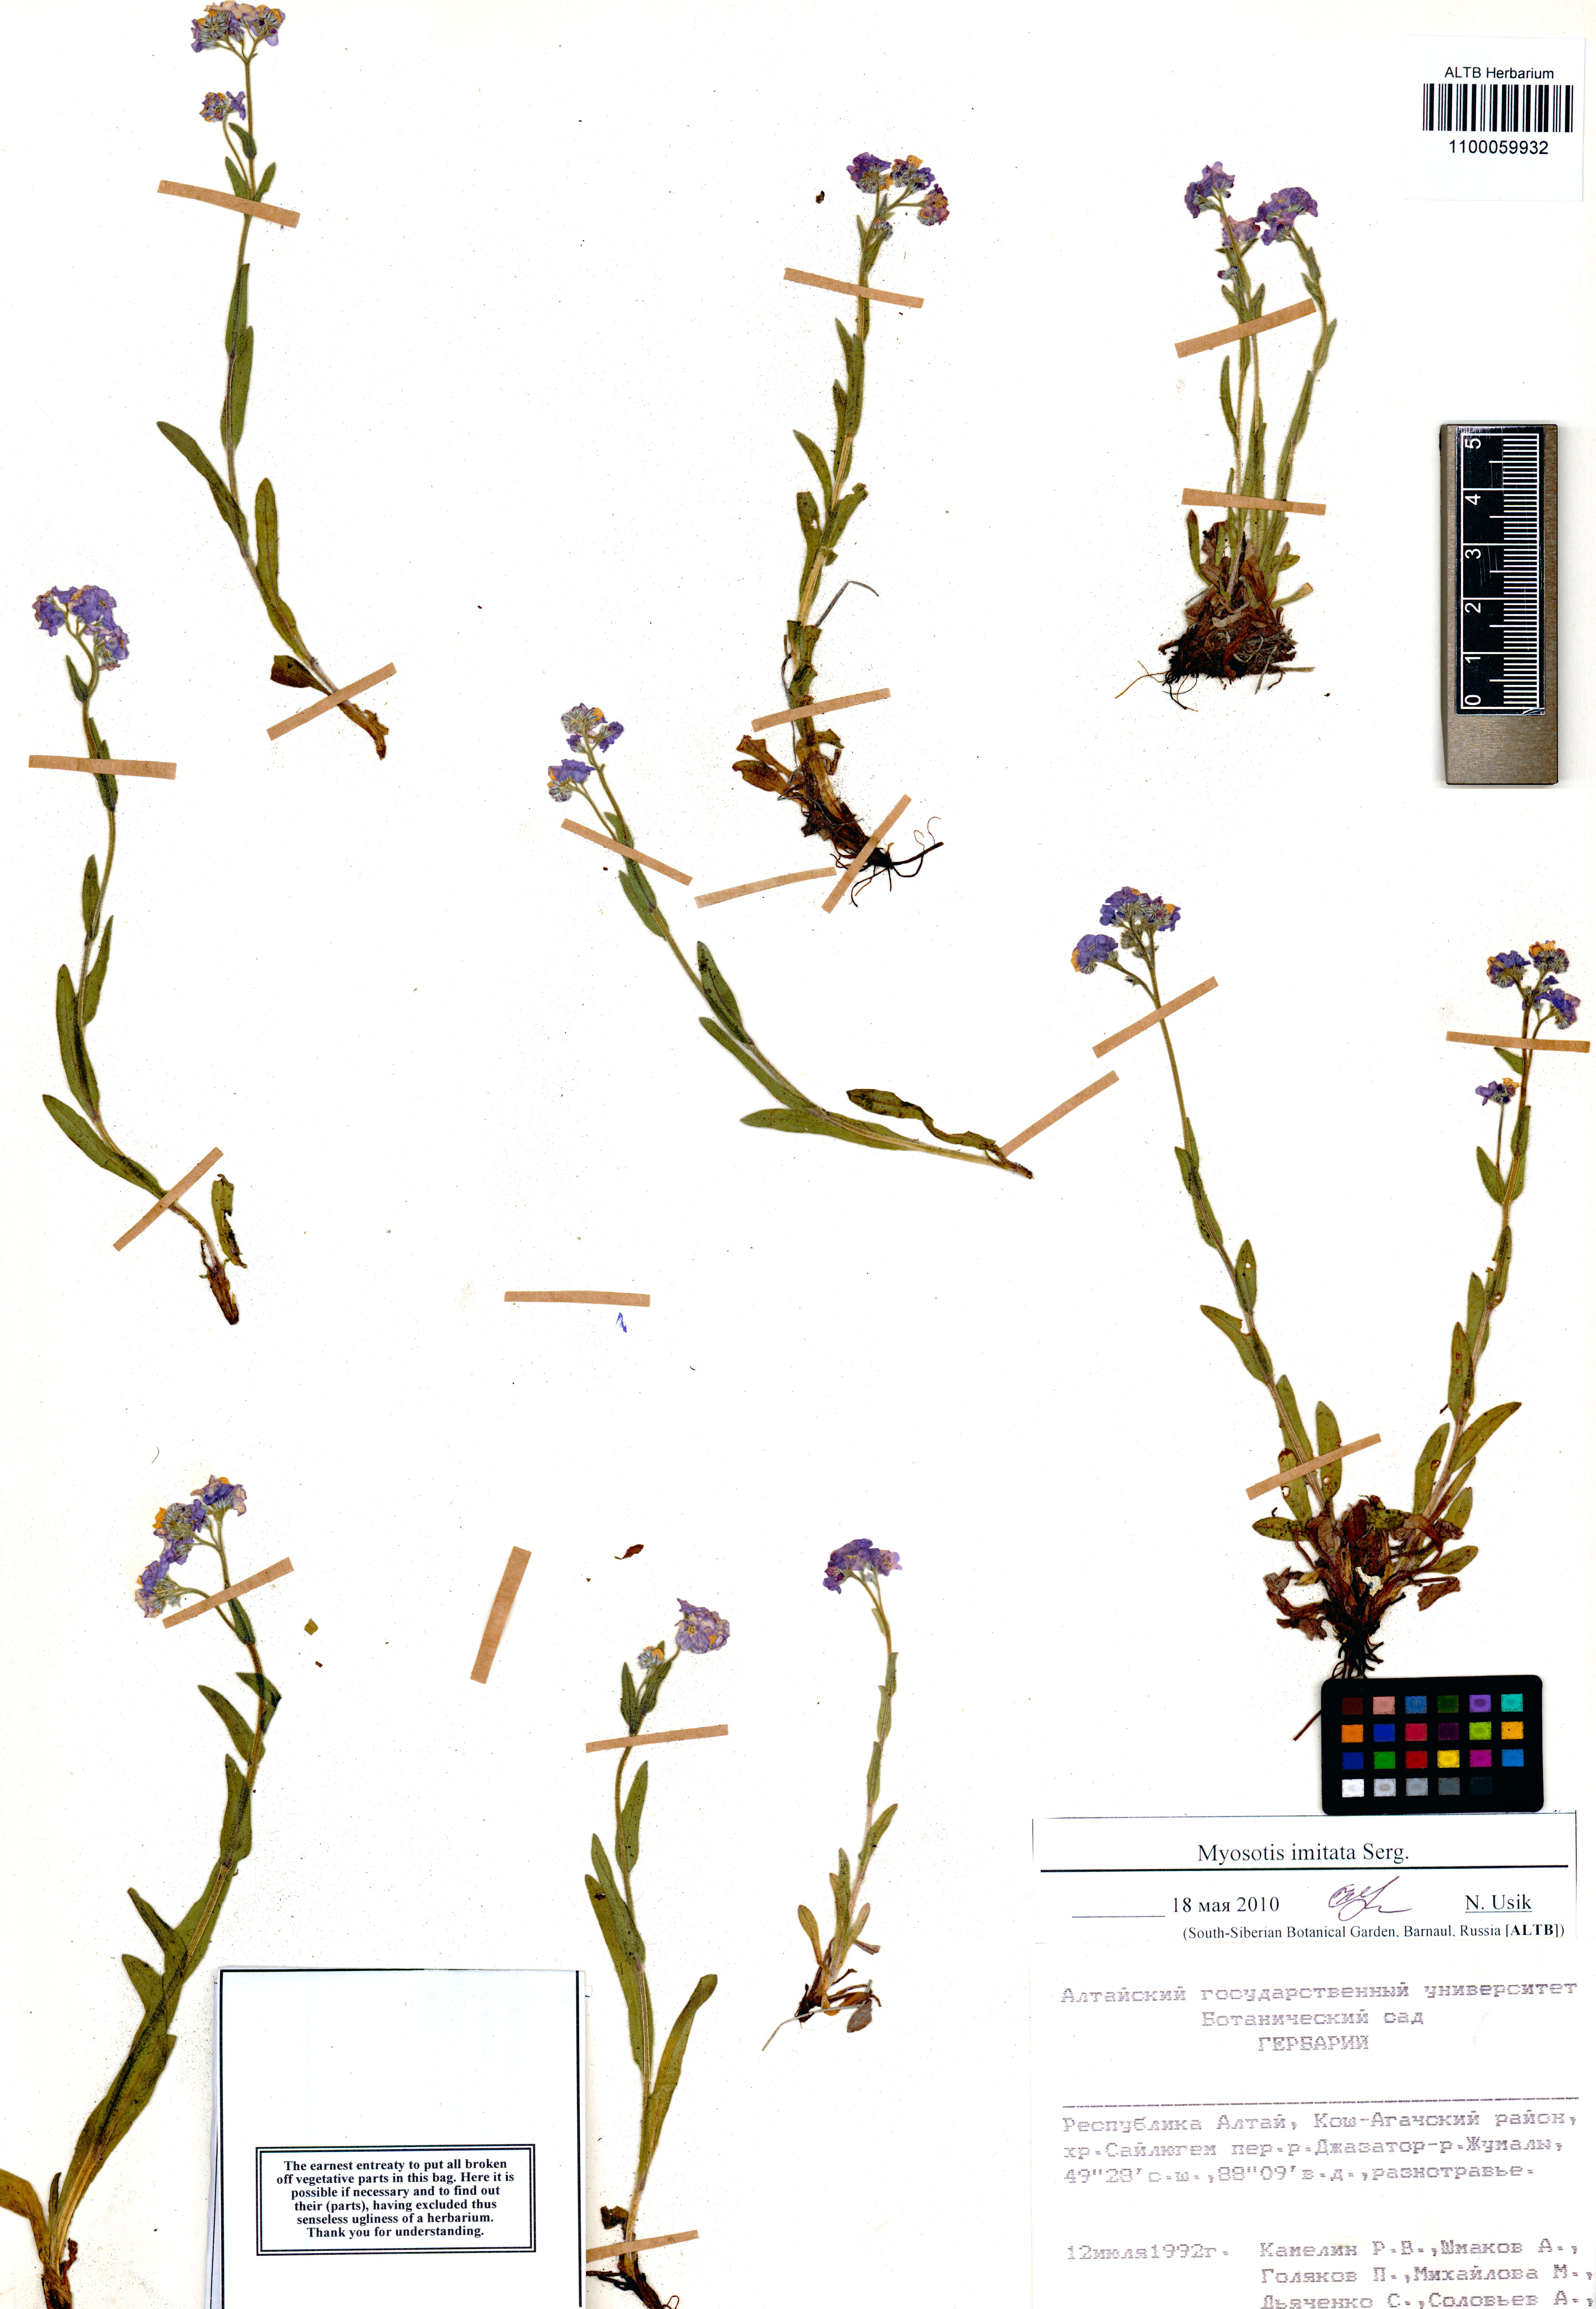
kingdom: Plantae
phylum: Tracheophyta
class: Magnoliopsida
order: Boraginales
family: Boraginaceae
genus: Myosotis
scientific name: Myosotis imitata
